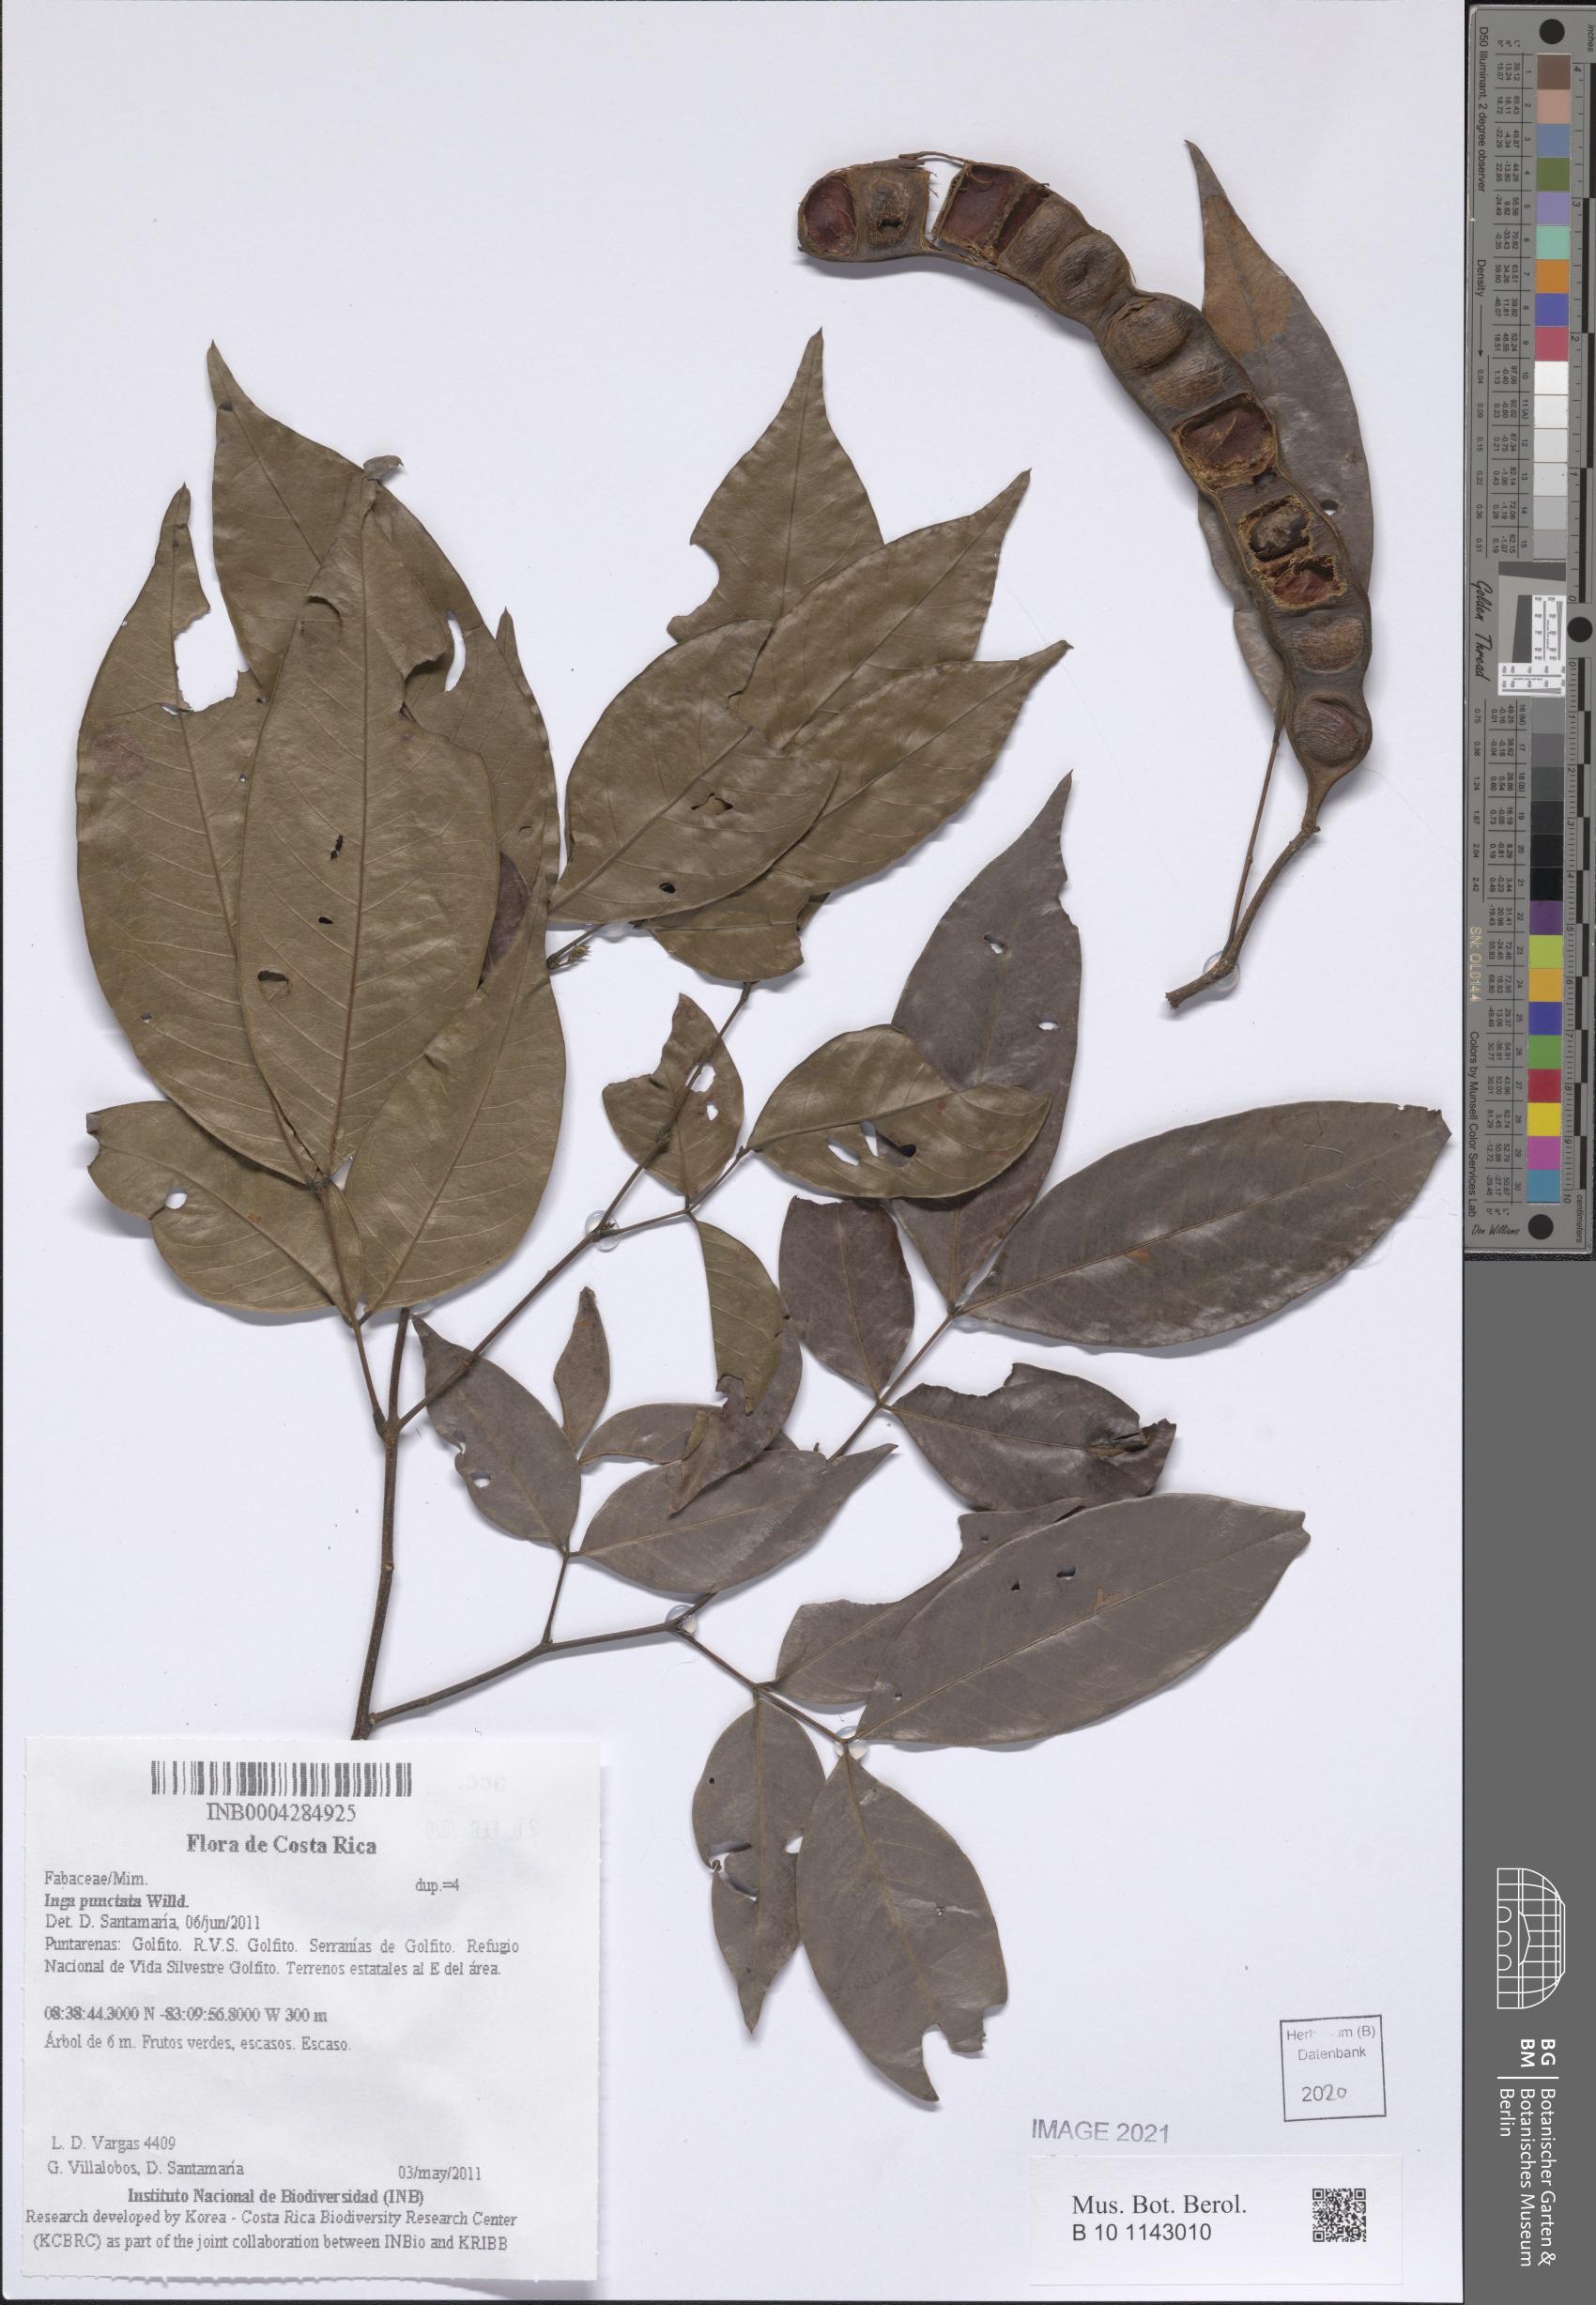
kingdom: Plantae
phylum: Tracheophyta
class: Magnoliopsida
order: Fabales
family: Fabaceae
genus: Inga
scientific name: Inga punctata
